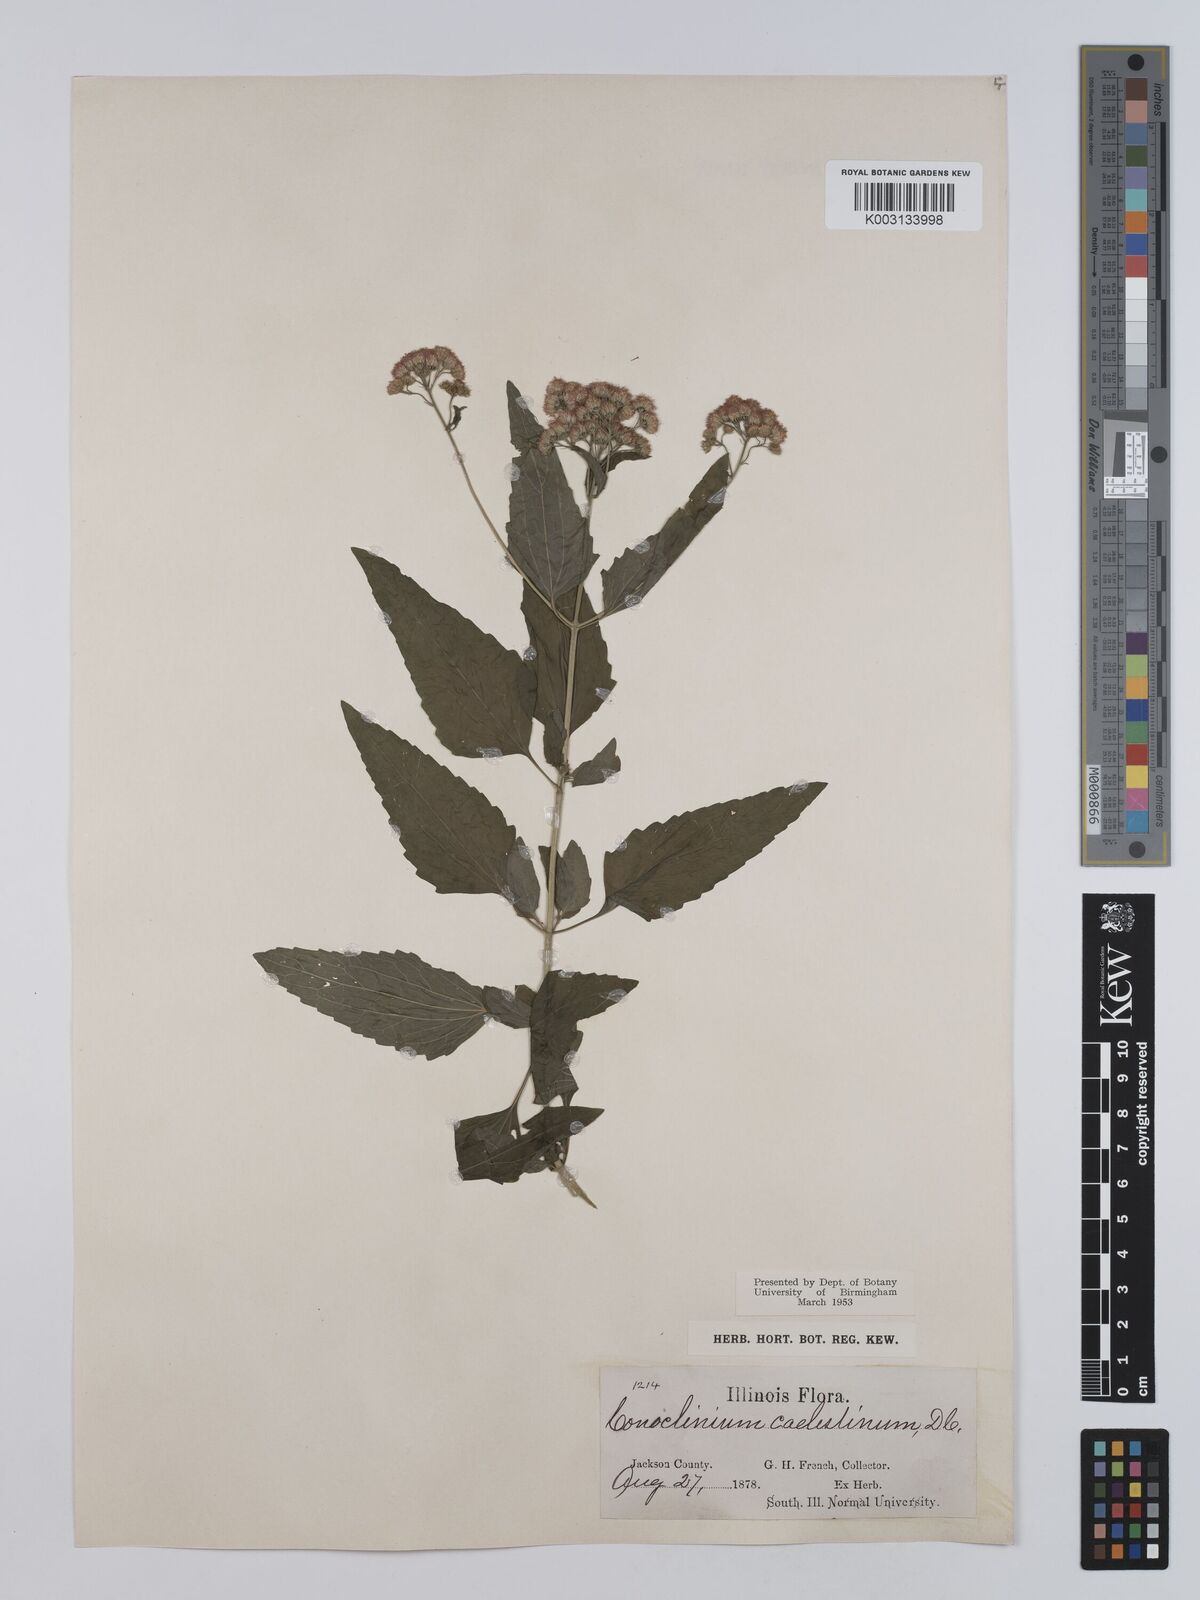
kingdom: Plantae
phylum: Tracheophyta
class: Magnoliopsida
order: Asterales
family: Asteraceae
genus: Conoclinium
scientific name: Conoclinium coelestinum
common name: Blue mistflower
